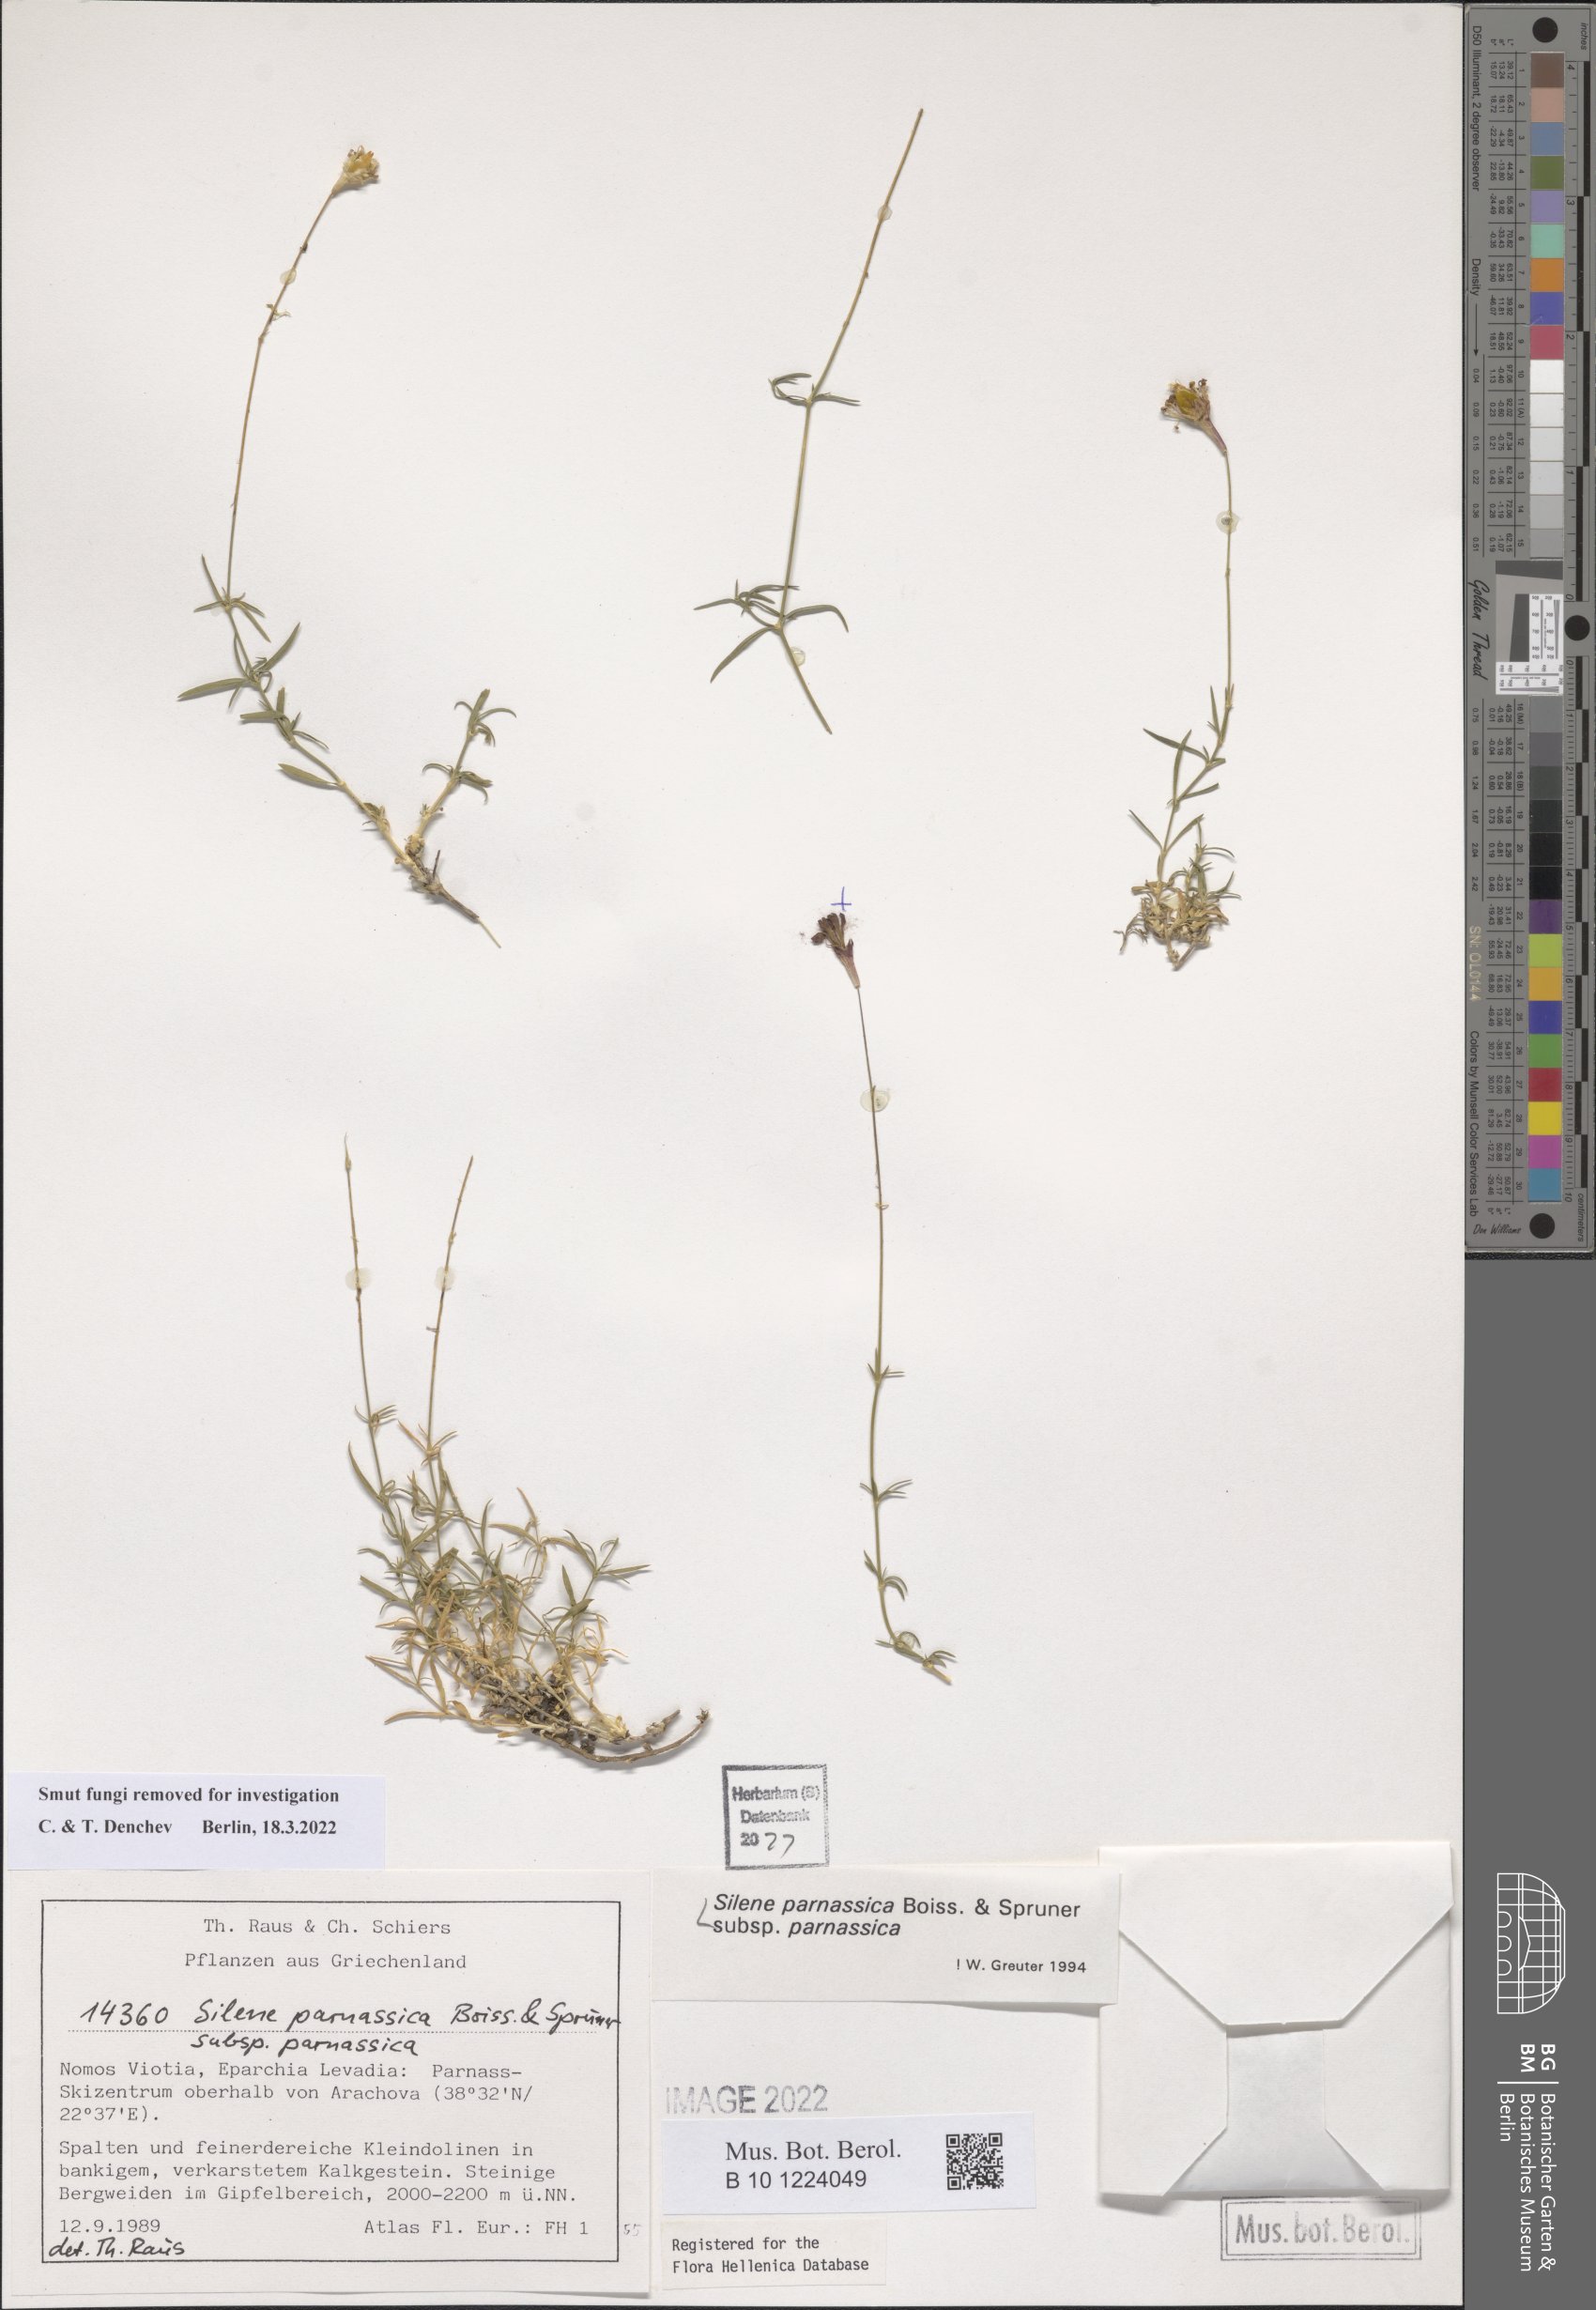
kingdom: Plantae
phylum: Tracheophyta
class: Magnoliopsida
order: Caryophyllales
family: Caryophyllaceae
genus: Silene
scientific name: Silene parnassica
